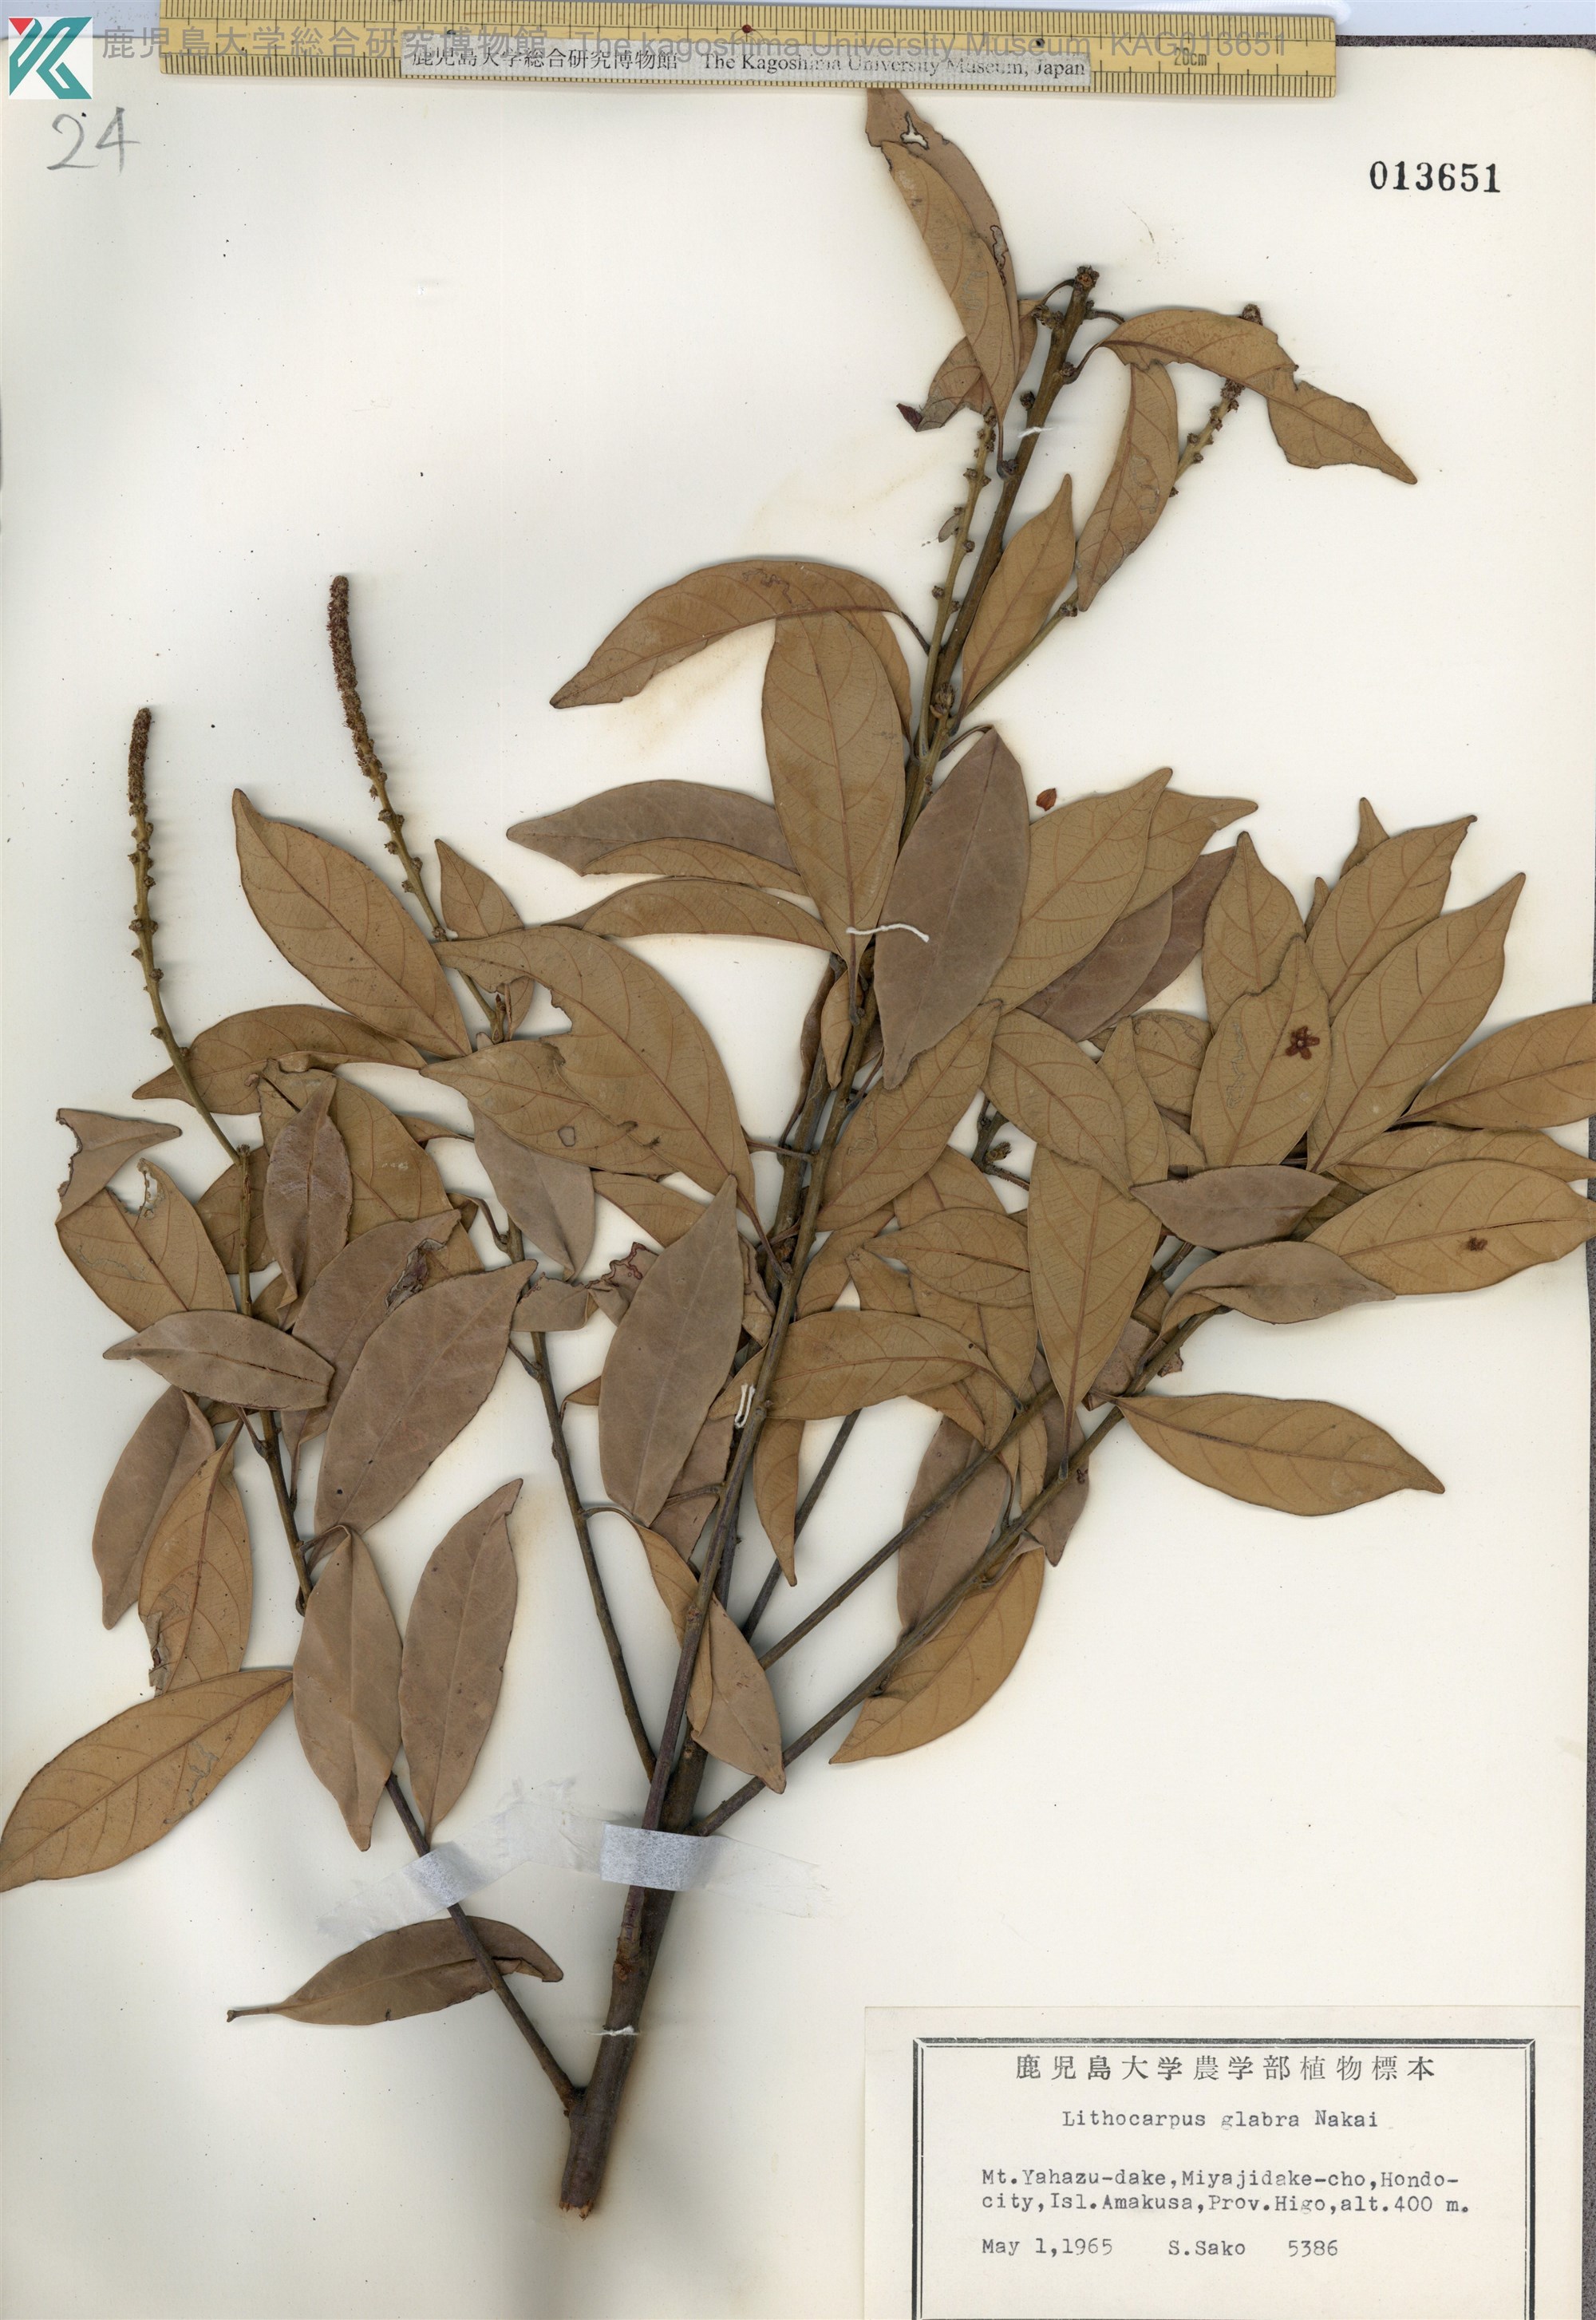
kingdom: Plantae
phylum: Tracheophyta
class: Magnoliopsida
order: Fagales
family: Fagaceae
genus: Lithocarpus
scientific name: Lithocarpus glaber
